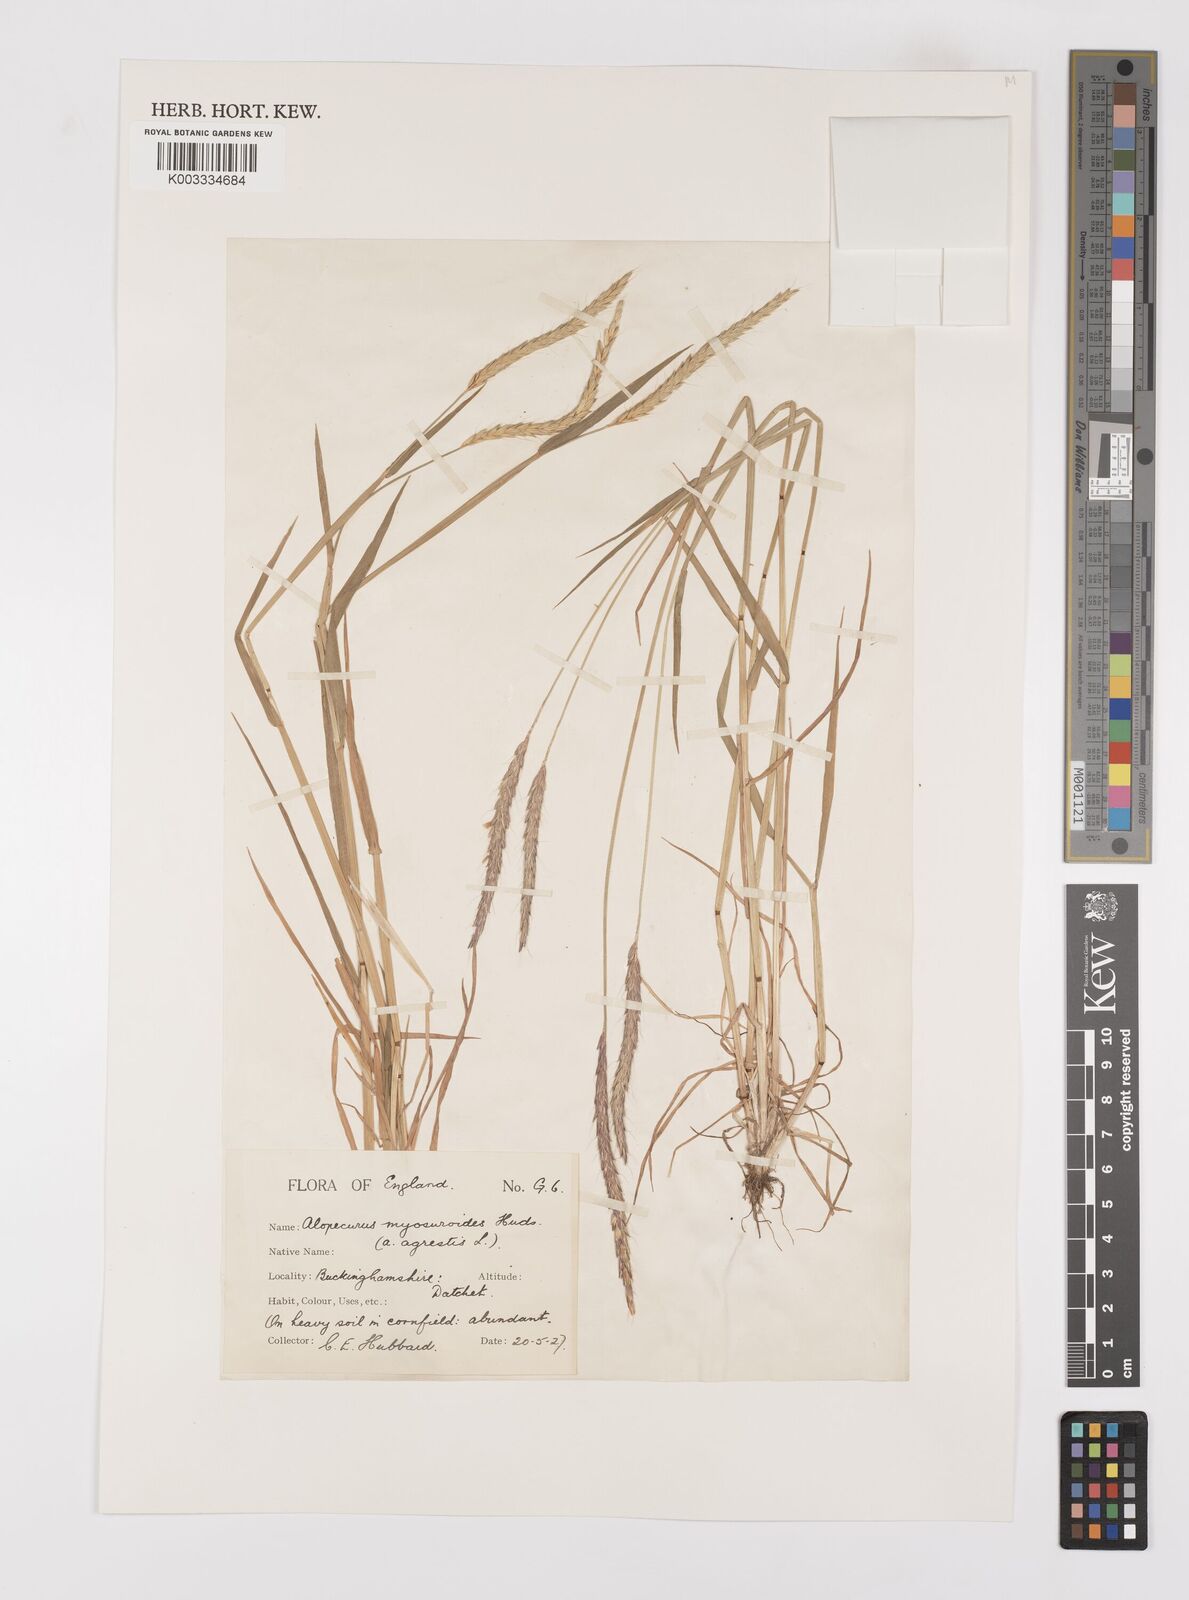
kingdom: Plantae
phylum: Tracheophyta
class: Liliopsida
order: Poales
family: Poaceae
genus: Alopecurus
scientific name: Alopecurus myosuroides
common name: Black-grass
